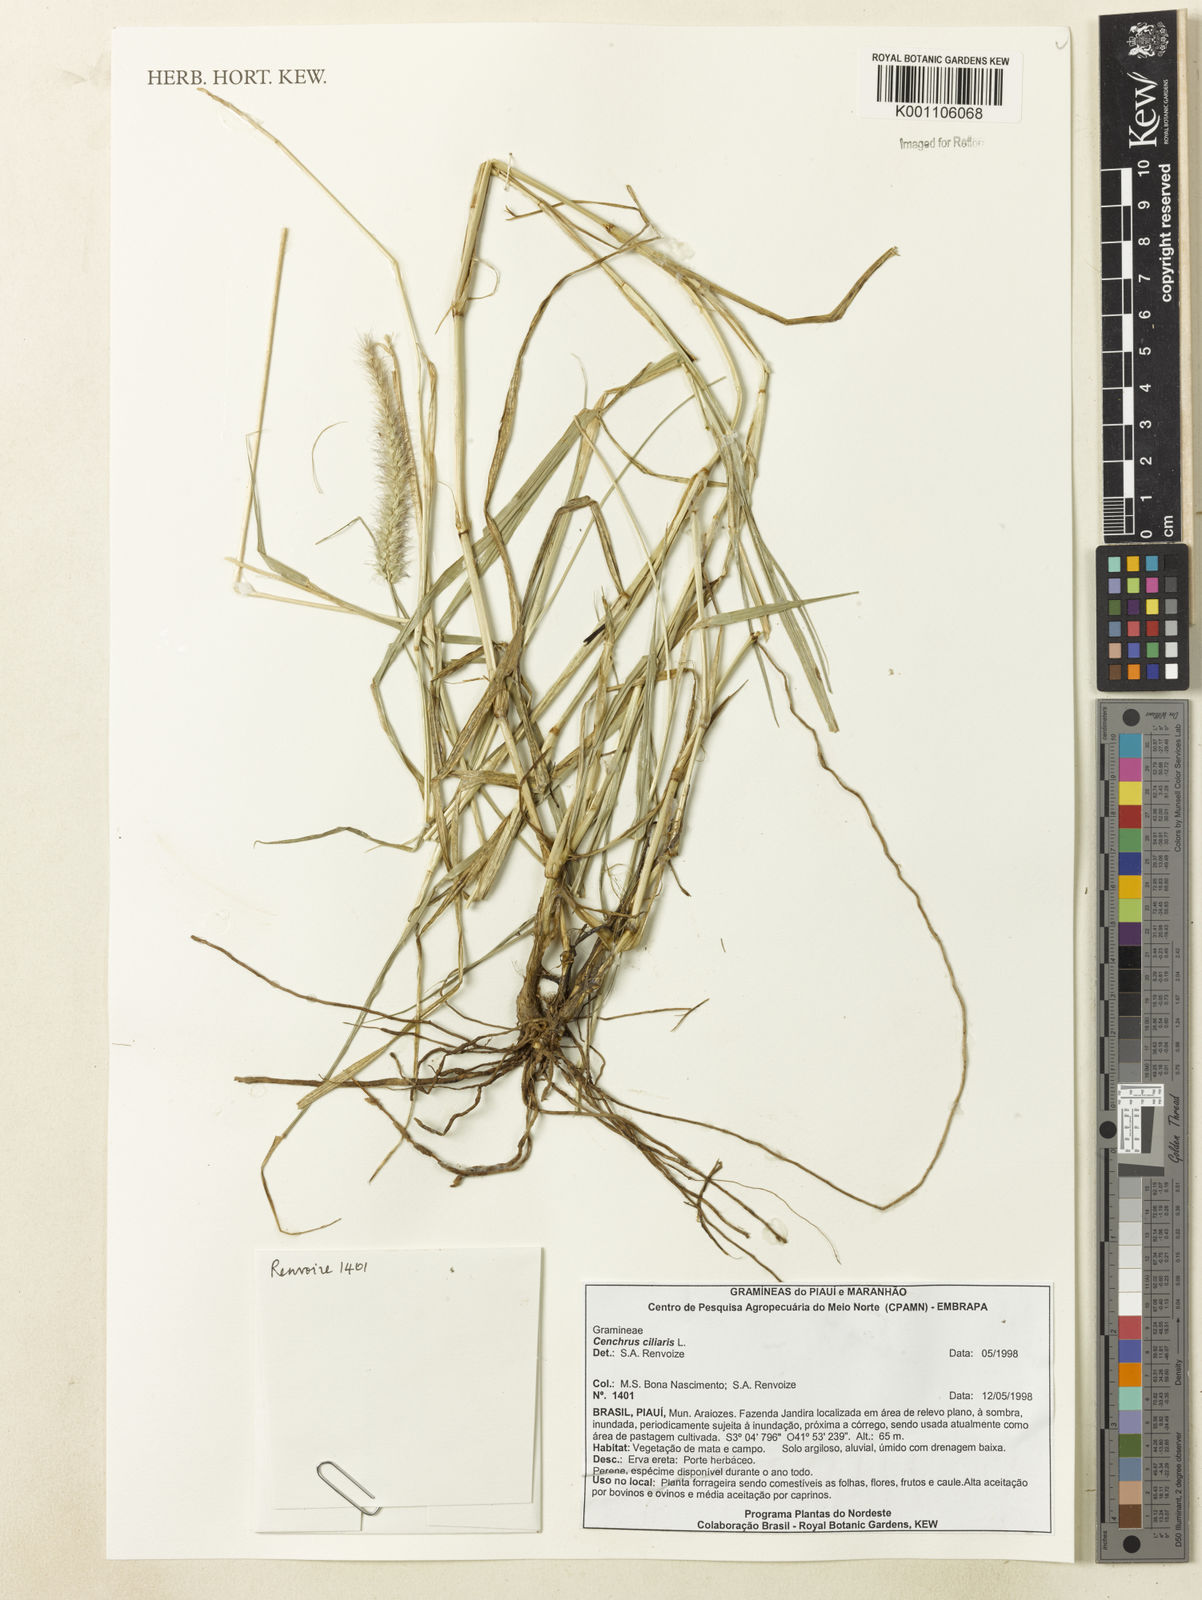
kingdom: Plantae
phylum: Tracheophyta
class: Liliopsida
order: Poales
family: Poaceae
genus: Cenchrus
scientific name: Cenchrus ciliaris
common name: Buffelgrass
